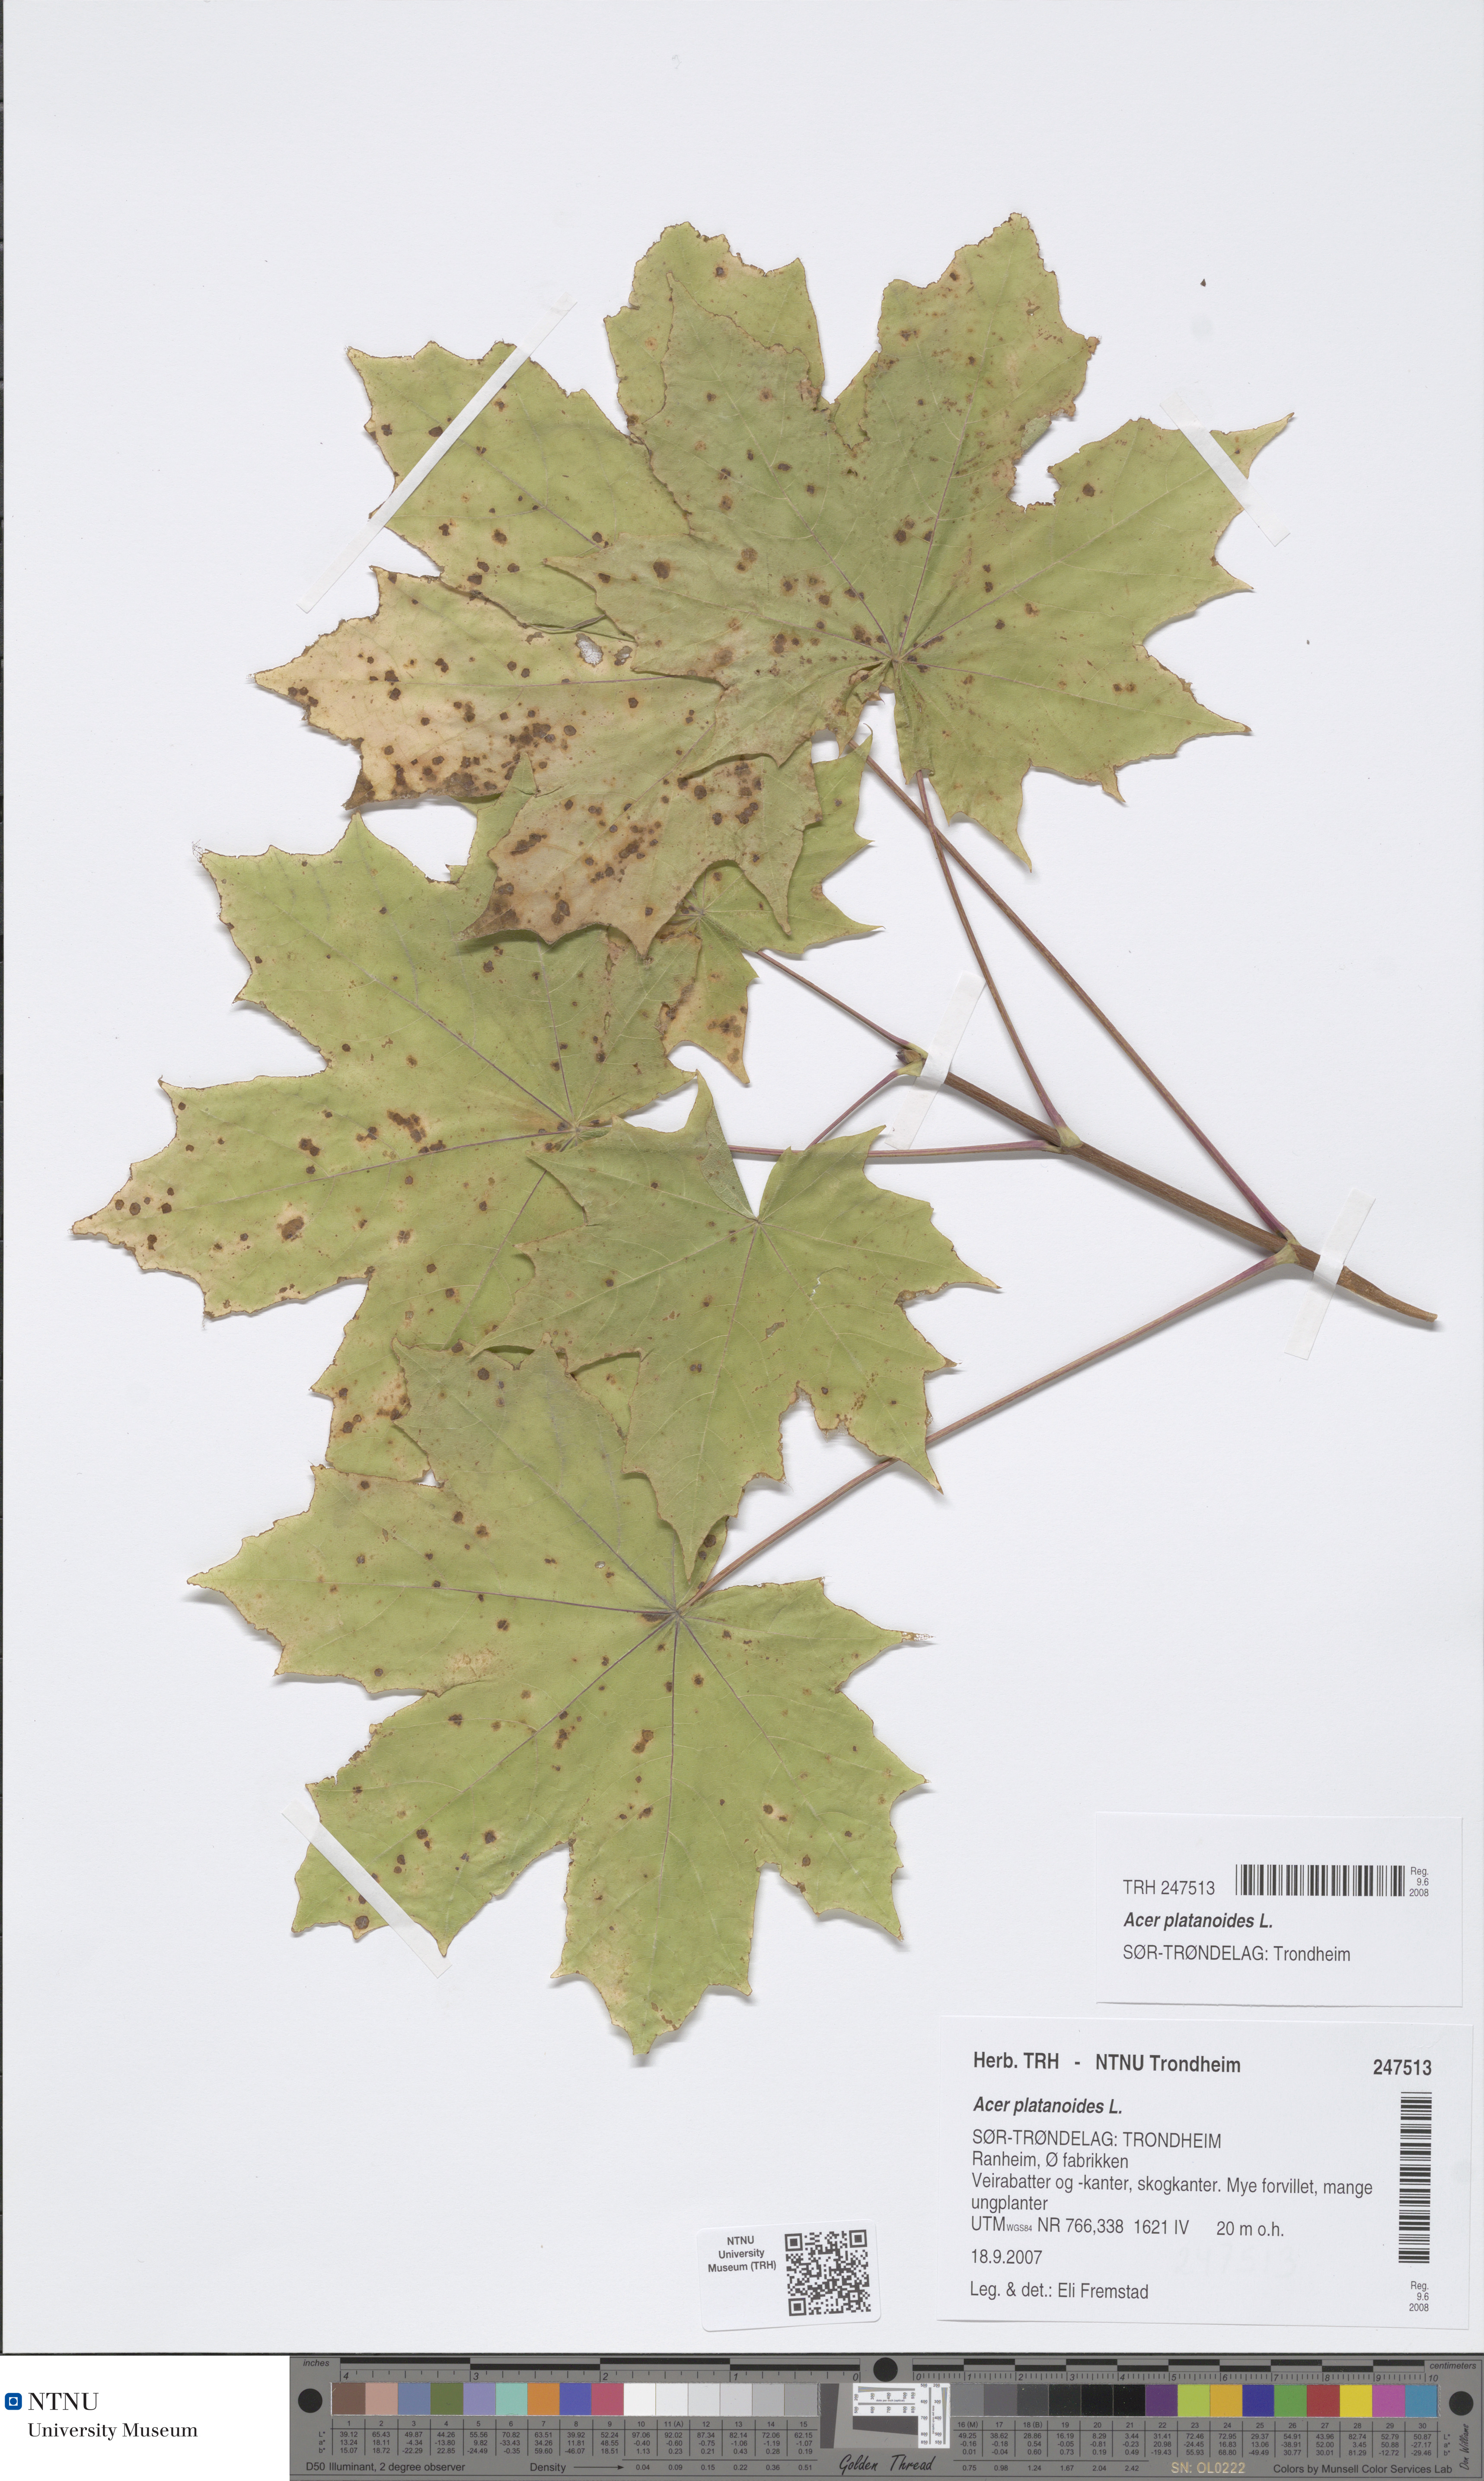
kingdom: Plantae
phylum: Tracheophyta
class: Magnoliopsida
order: Sapindales
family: Sapindaceae
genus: Acer
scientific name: Acer platanoides
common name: Norway maple
